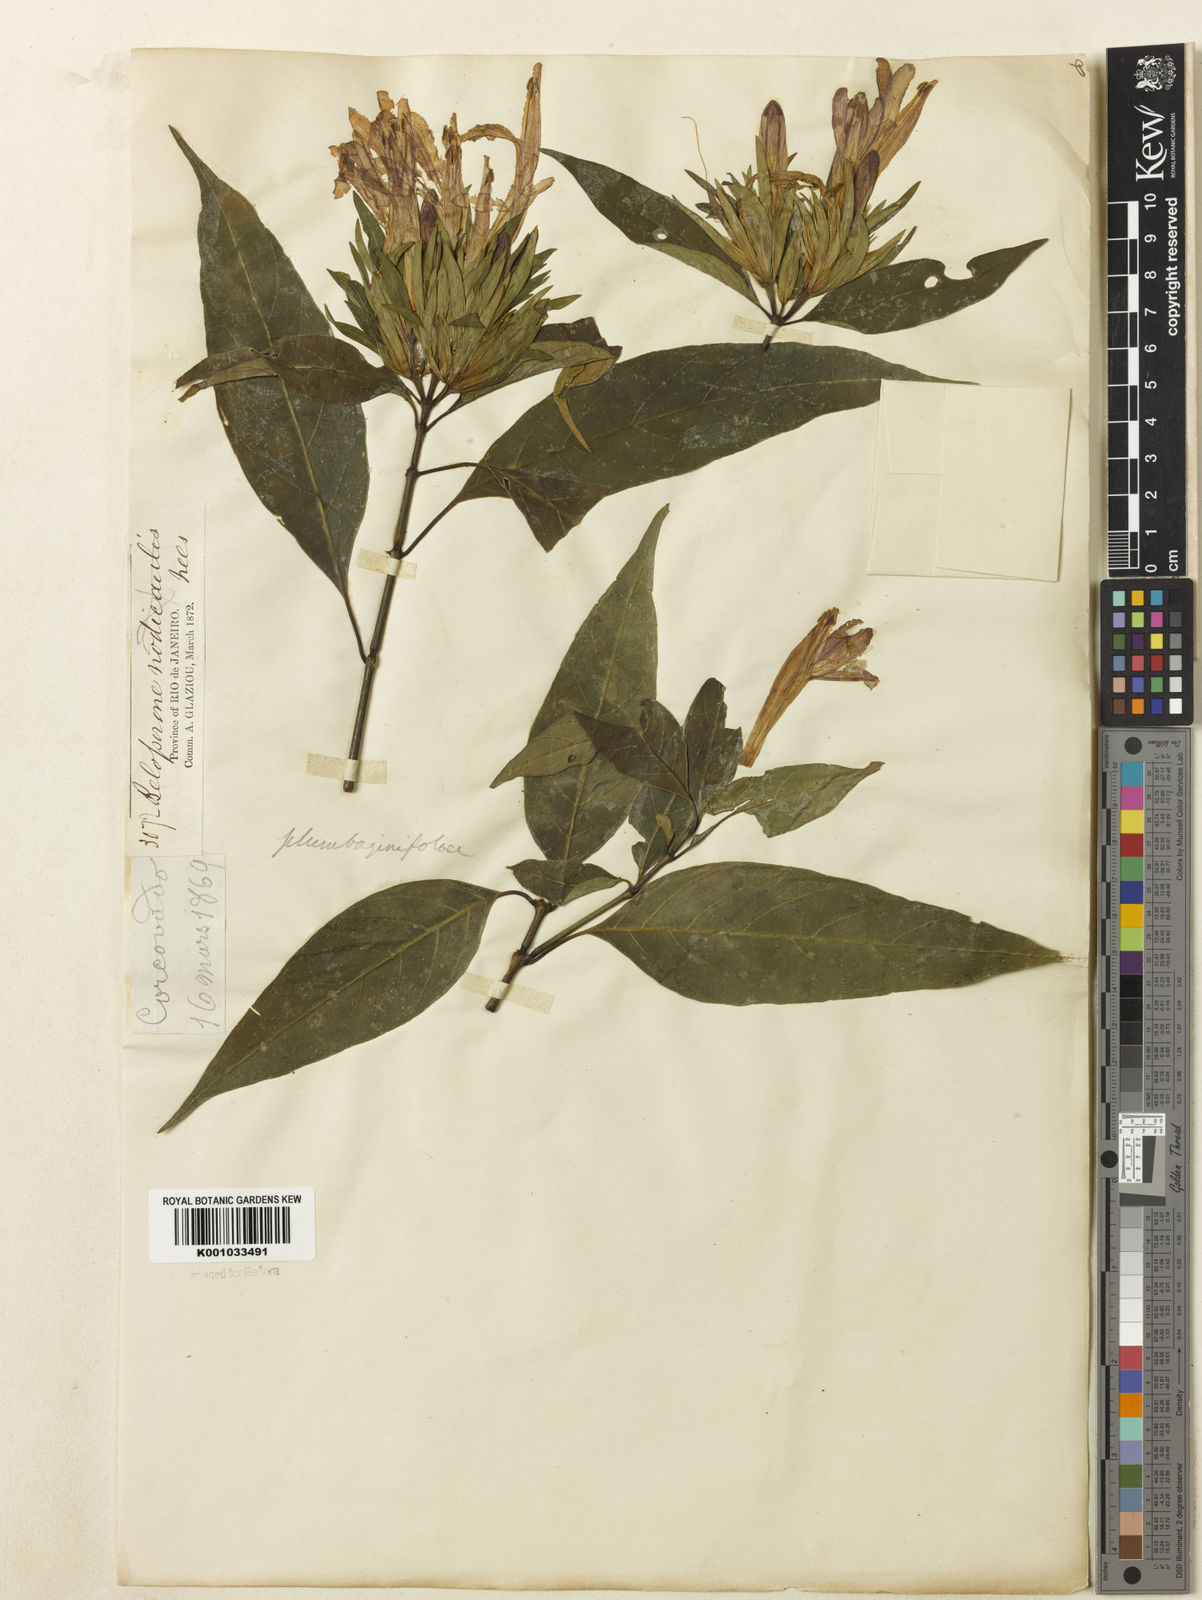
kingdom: Plantae
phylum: Tracheophyta
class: Magnoliopsida
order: Lamiales
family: Acanthaceae
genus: Justicia
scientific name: Justicia plumbaginifolia
